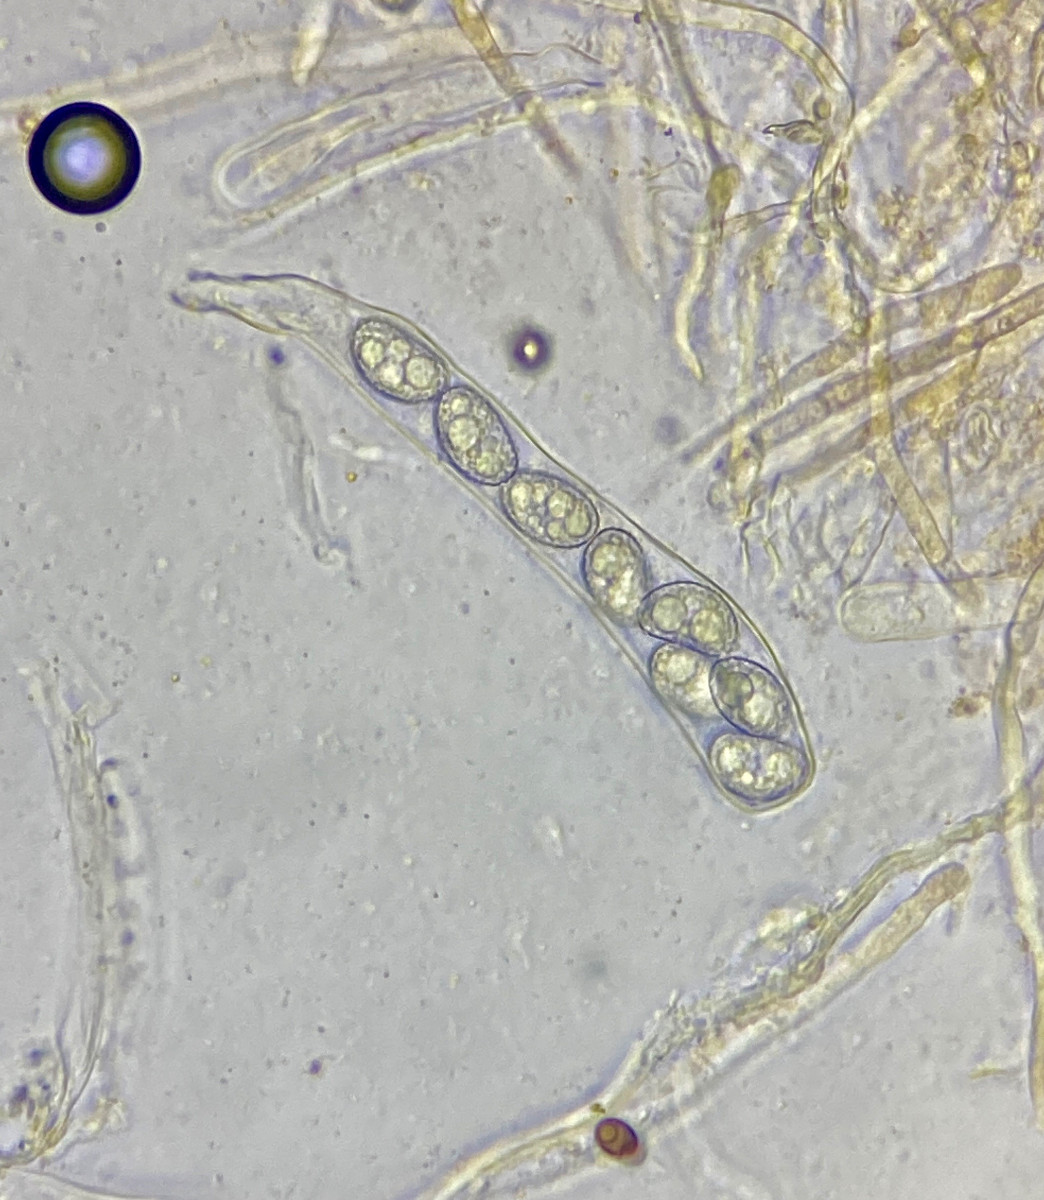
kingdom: Fungi
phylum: Ascomycota
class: Pezizomycetes
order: Pezizales
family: Pyronemataceae
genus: Octospora
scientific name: Octospora orthotrichi
